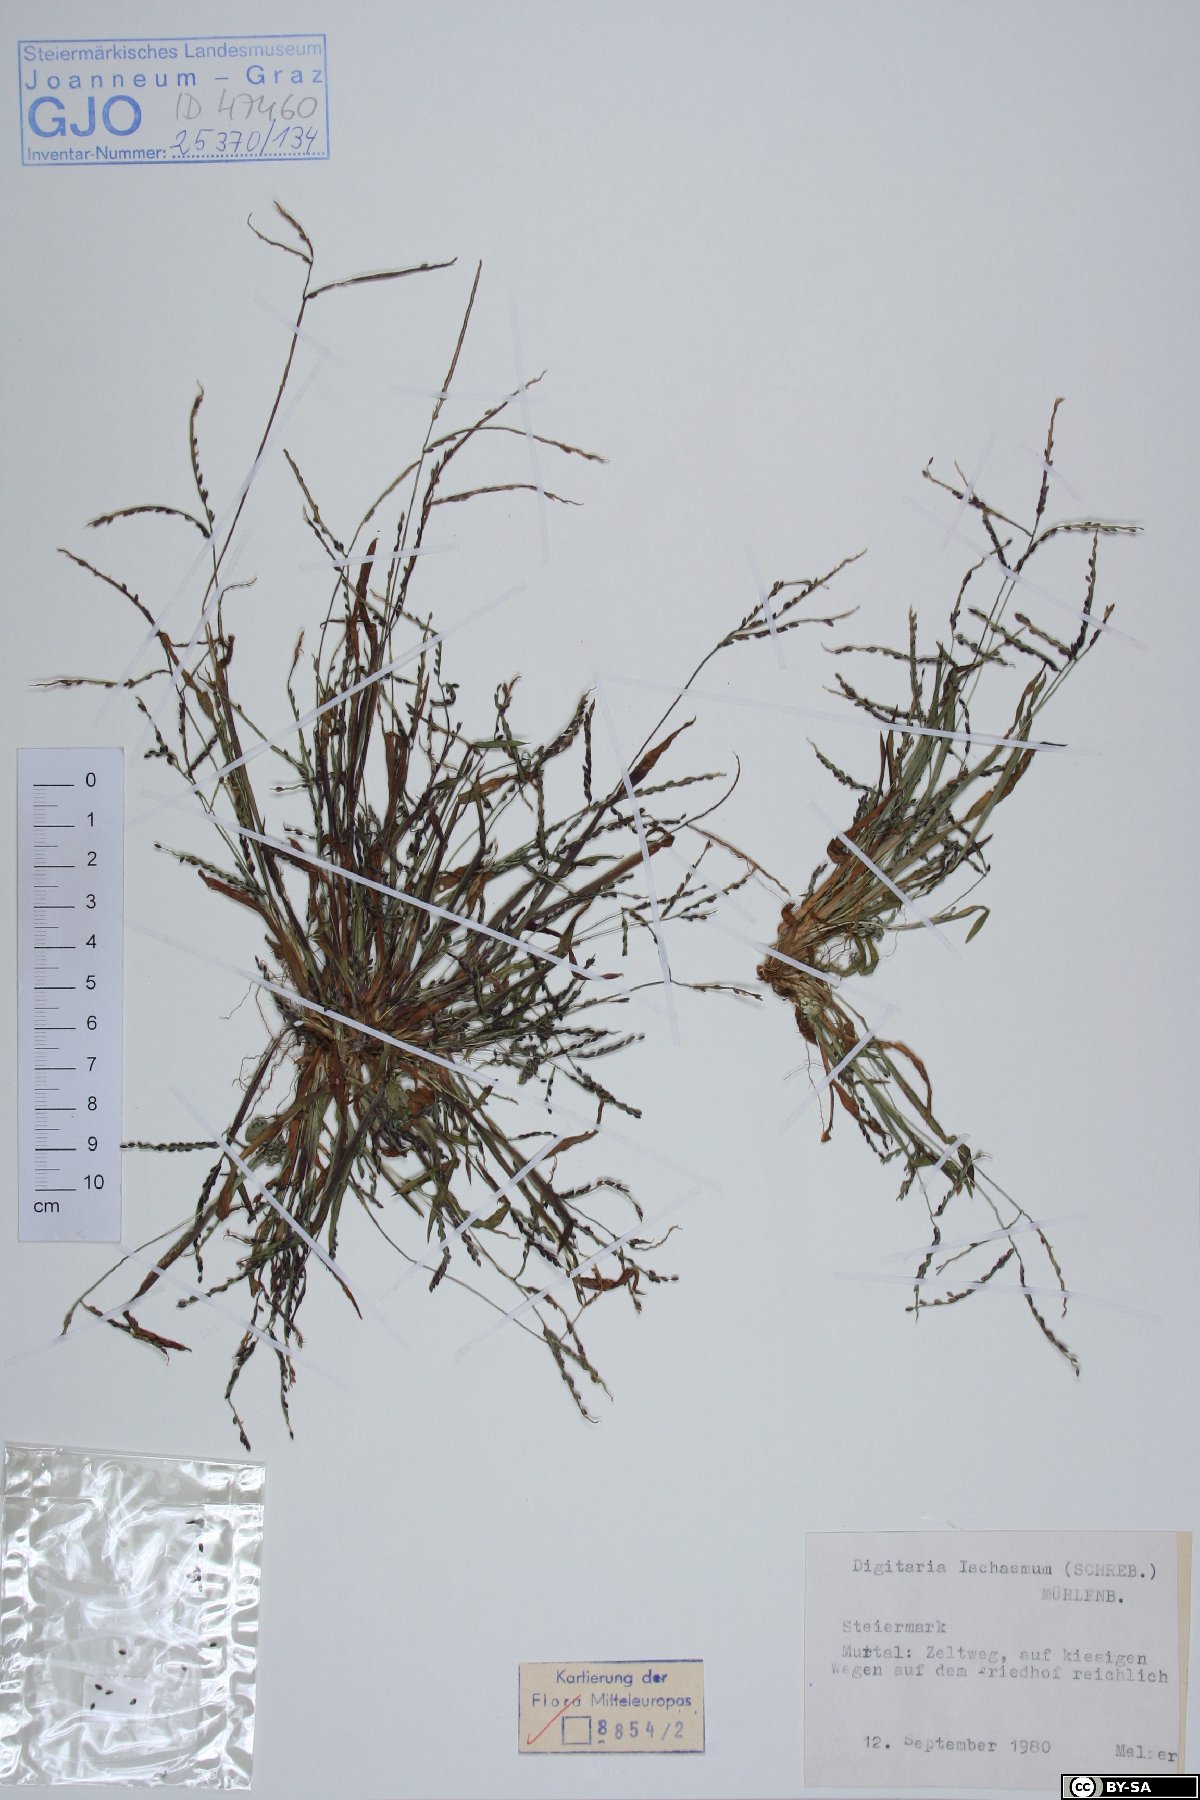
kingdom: Plantae
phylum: Tracheophyta
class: Liliopsida
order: Poales
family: Poaceae
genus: Digitaria
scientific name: Digitaria ischaemum
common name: Smooth crabgrass
